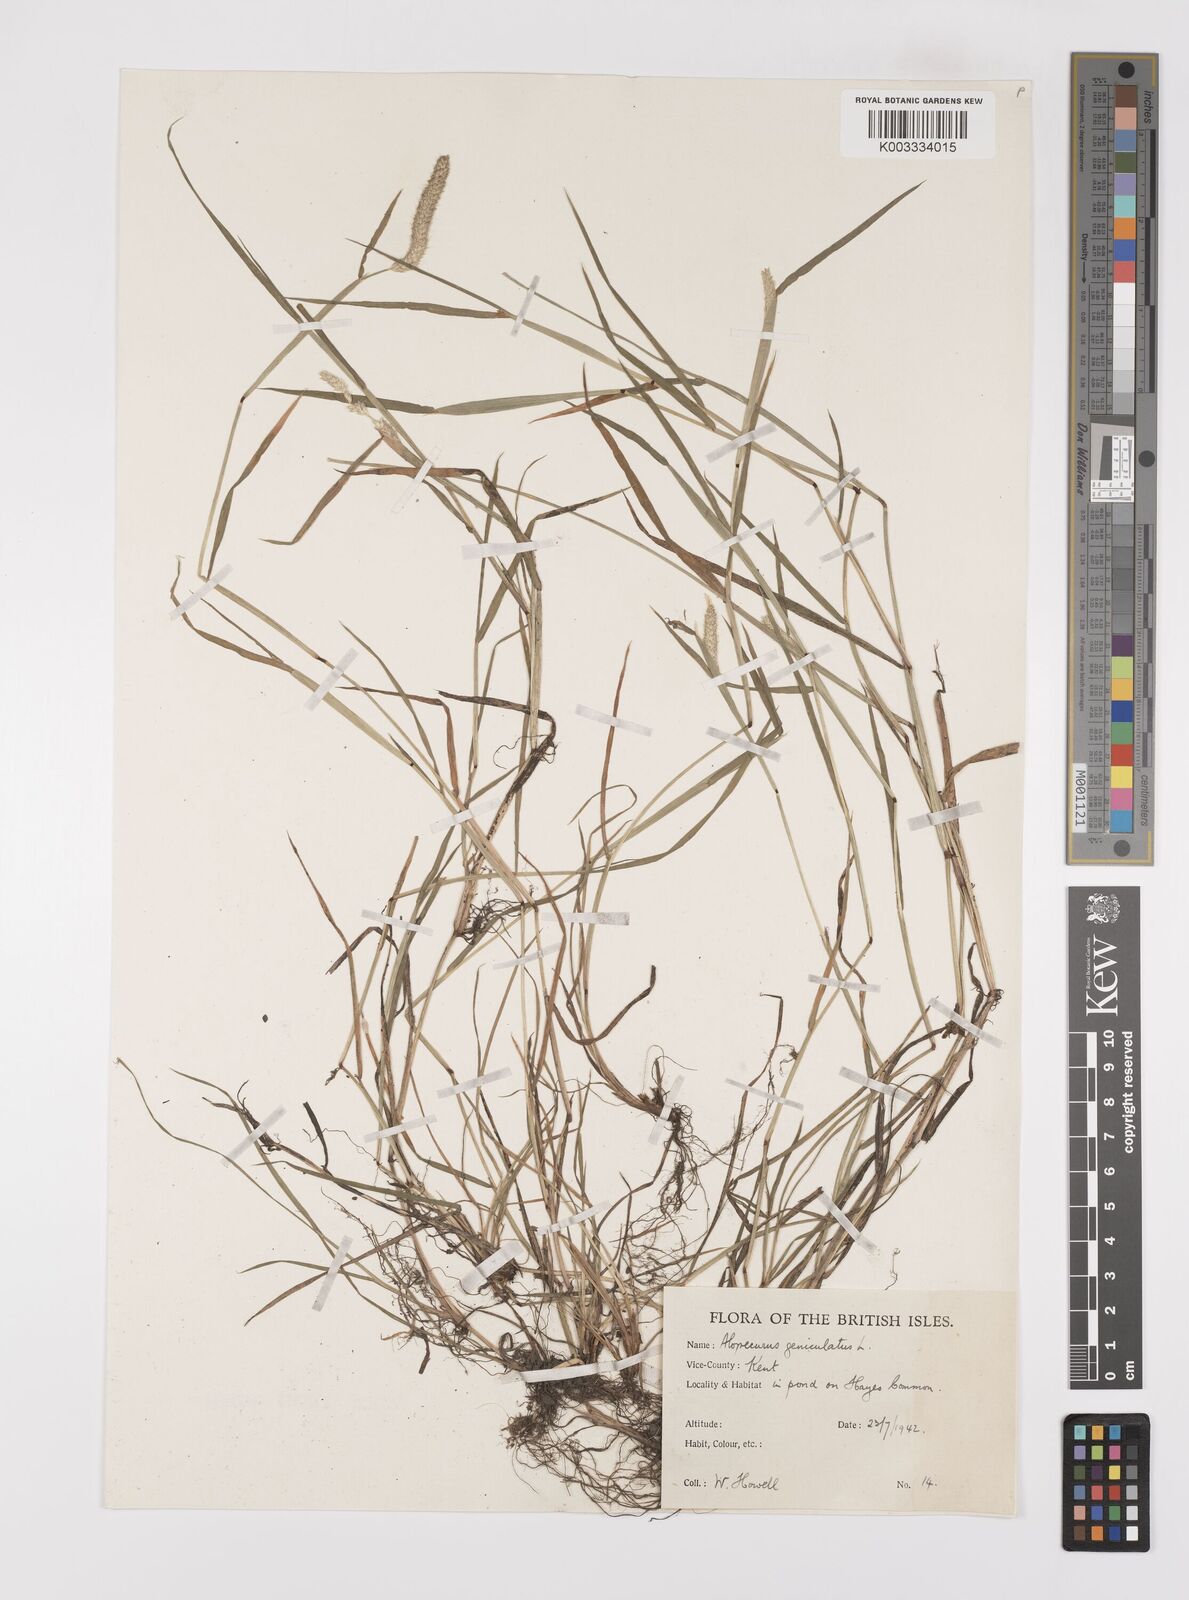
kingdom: Plantae
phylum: Tracheophyta
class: Liliopsida
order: Poales
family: Poaceae
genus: Alopecurus
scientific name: Alopecurus geniculatus
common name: Water foxtail
